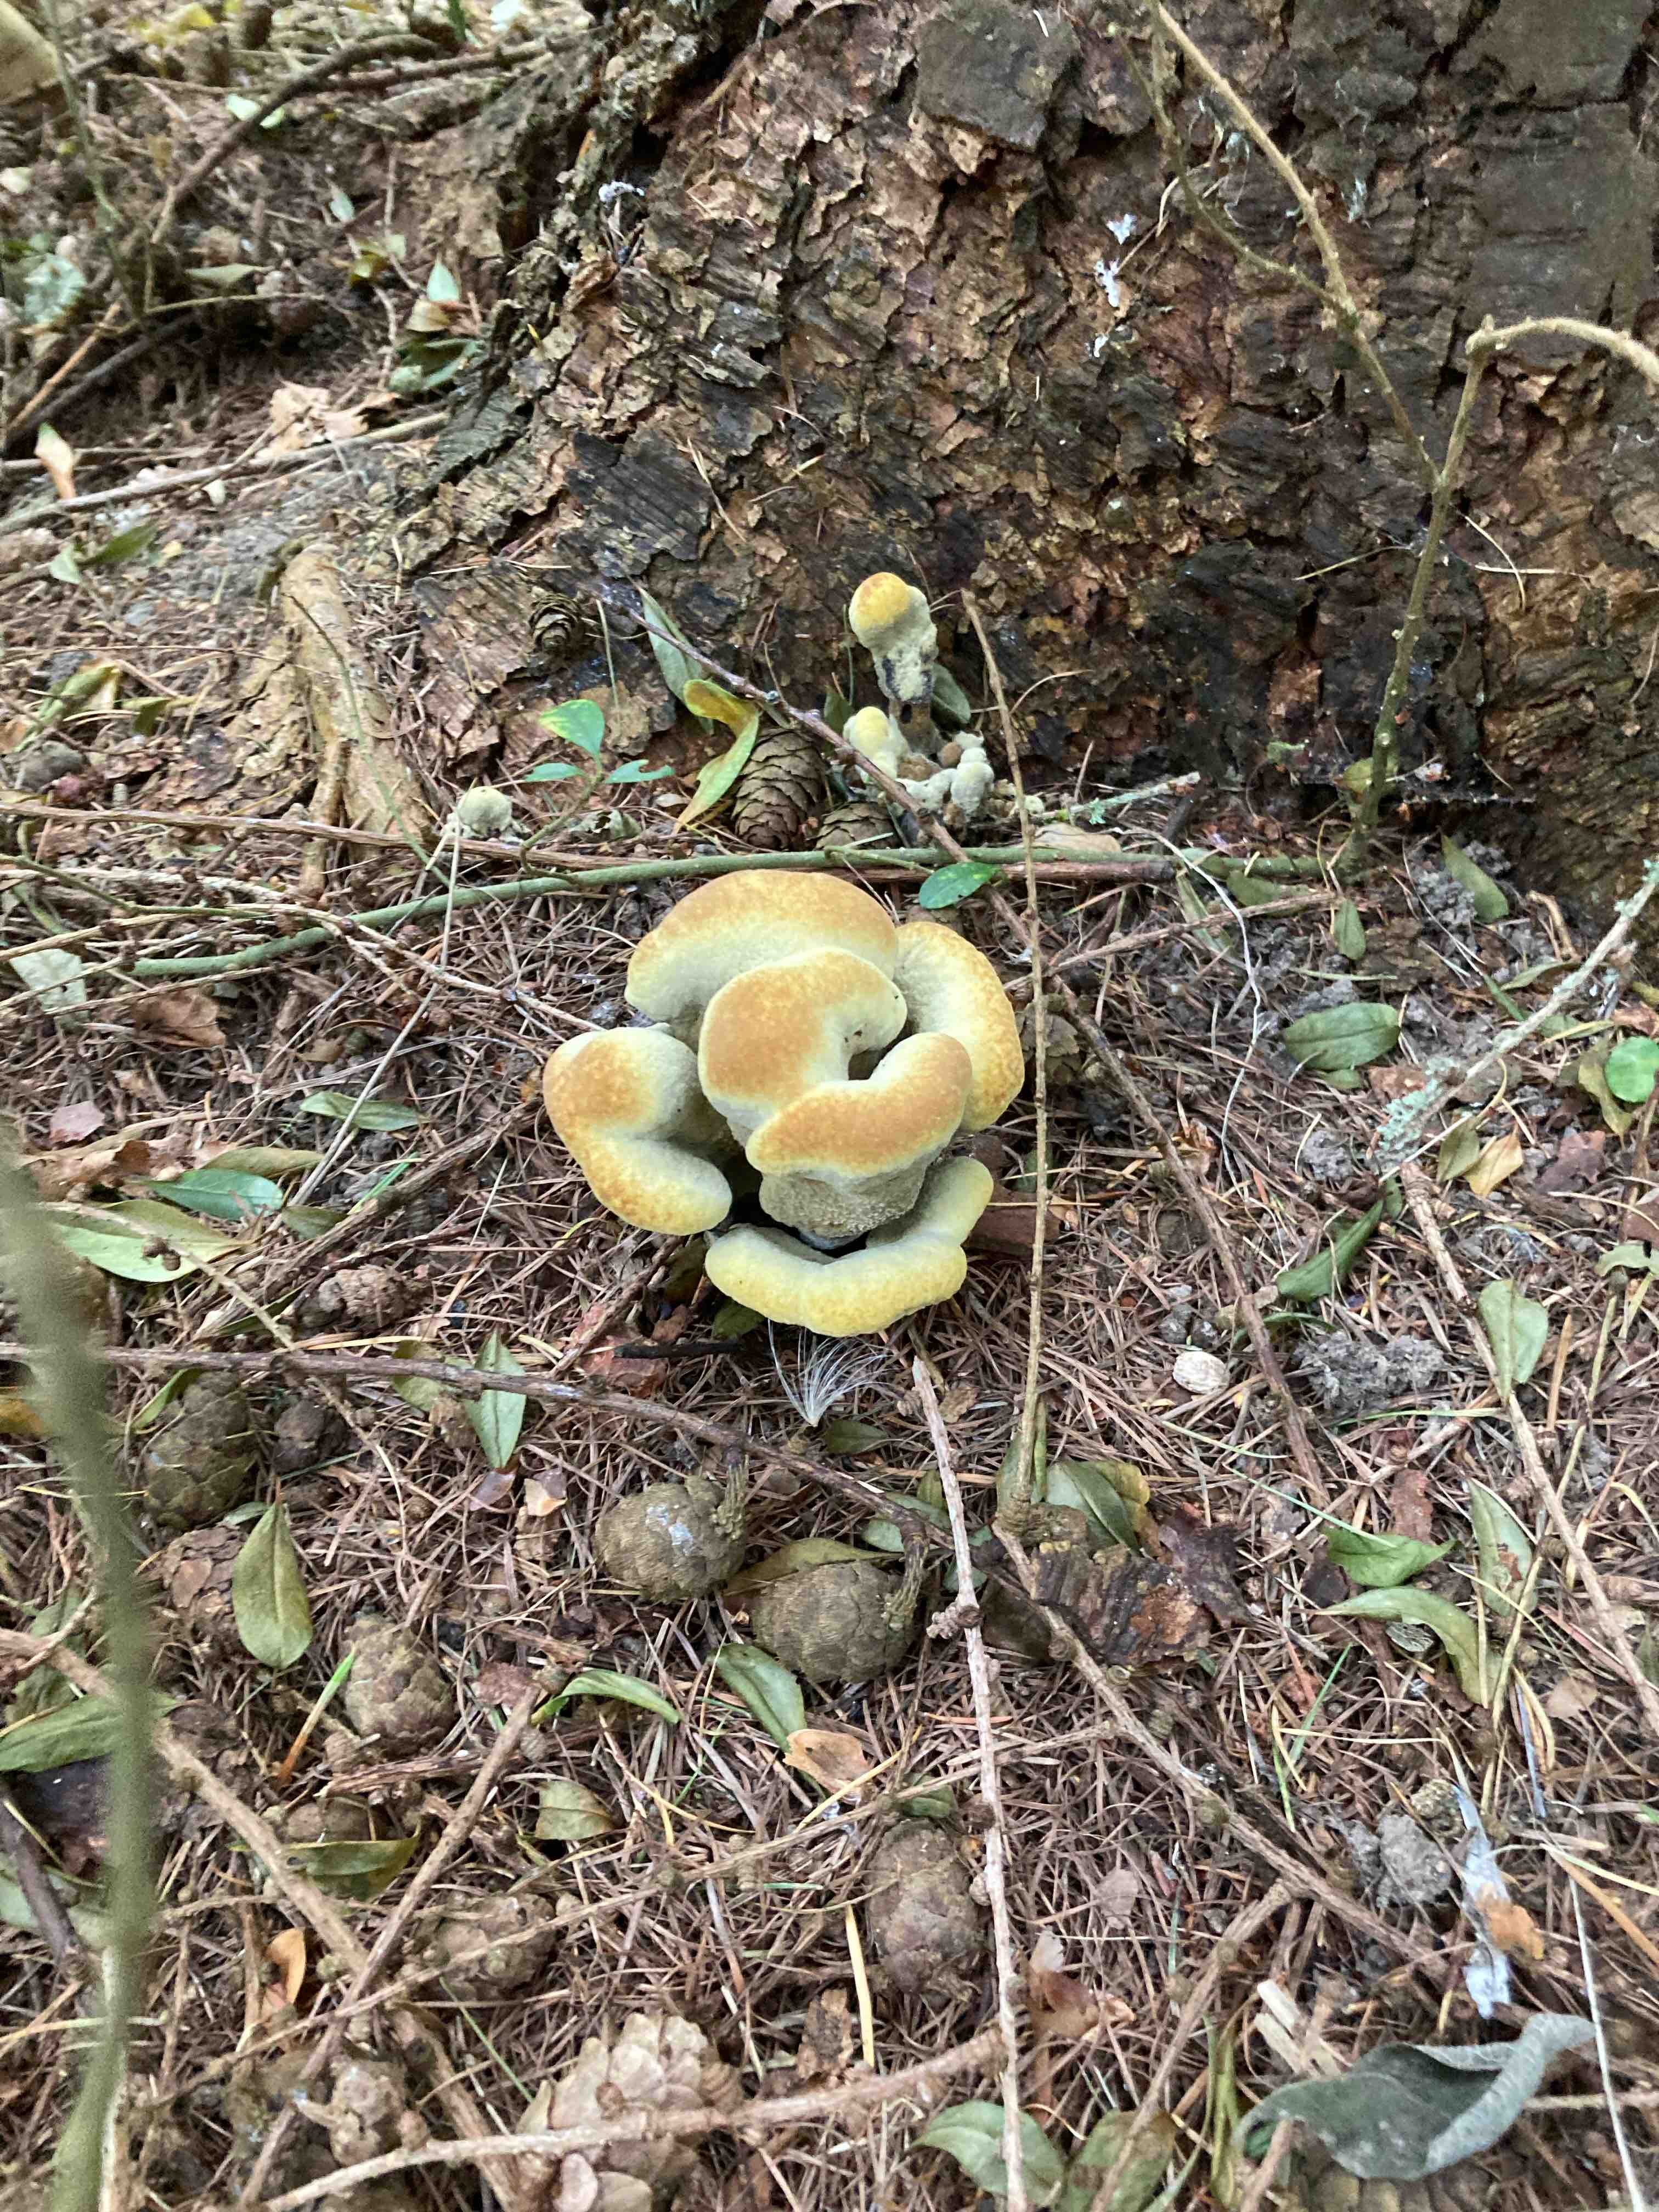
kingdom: Fungi
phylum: Basidiomycota
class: Agaricomycetes
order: Polyporales
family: Laetiporaceae
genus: Phaeolus
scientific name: Phaeolus schweinitzii
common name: brunporesvamp
